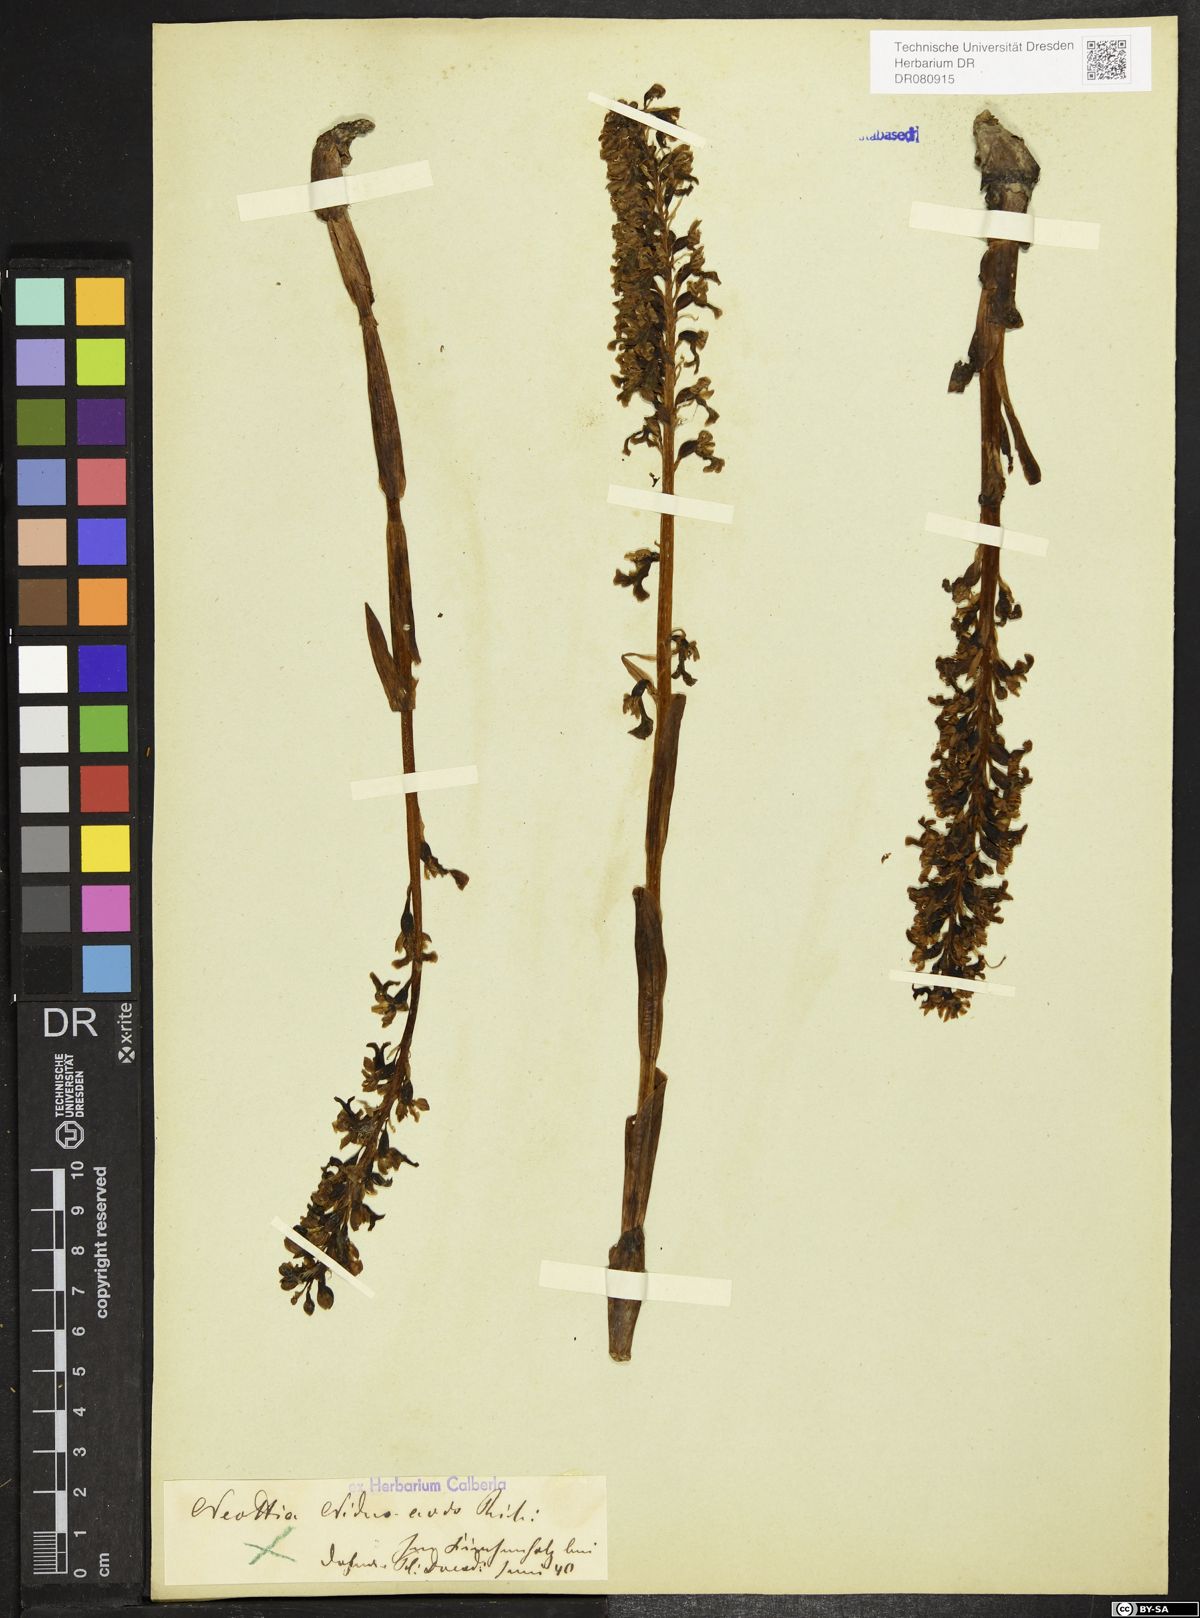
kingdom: Plantae
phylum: Tracheophyta
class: Liliopsida
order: Asparagales
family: Orchidaceae
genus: Neottia
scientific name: Neottia nidus-avis
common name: Bird's-nest orchid
